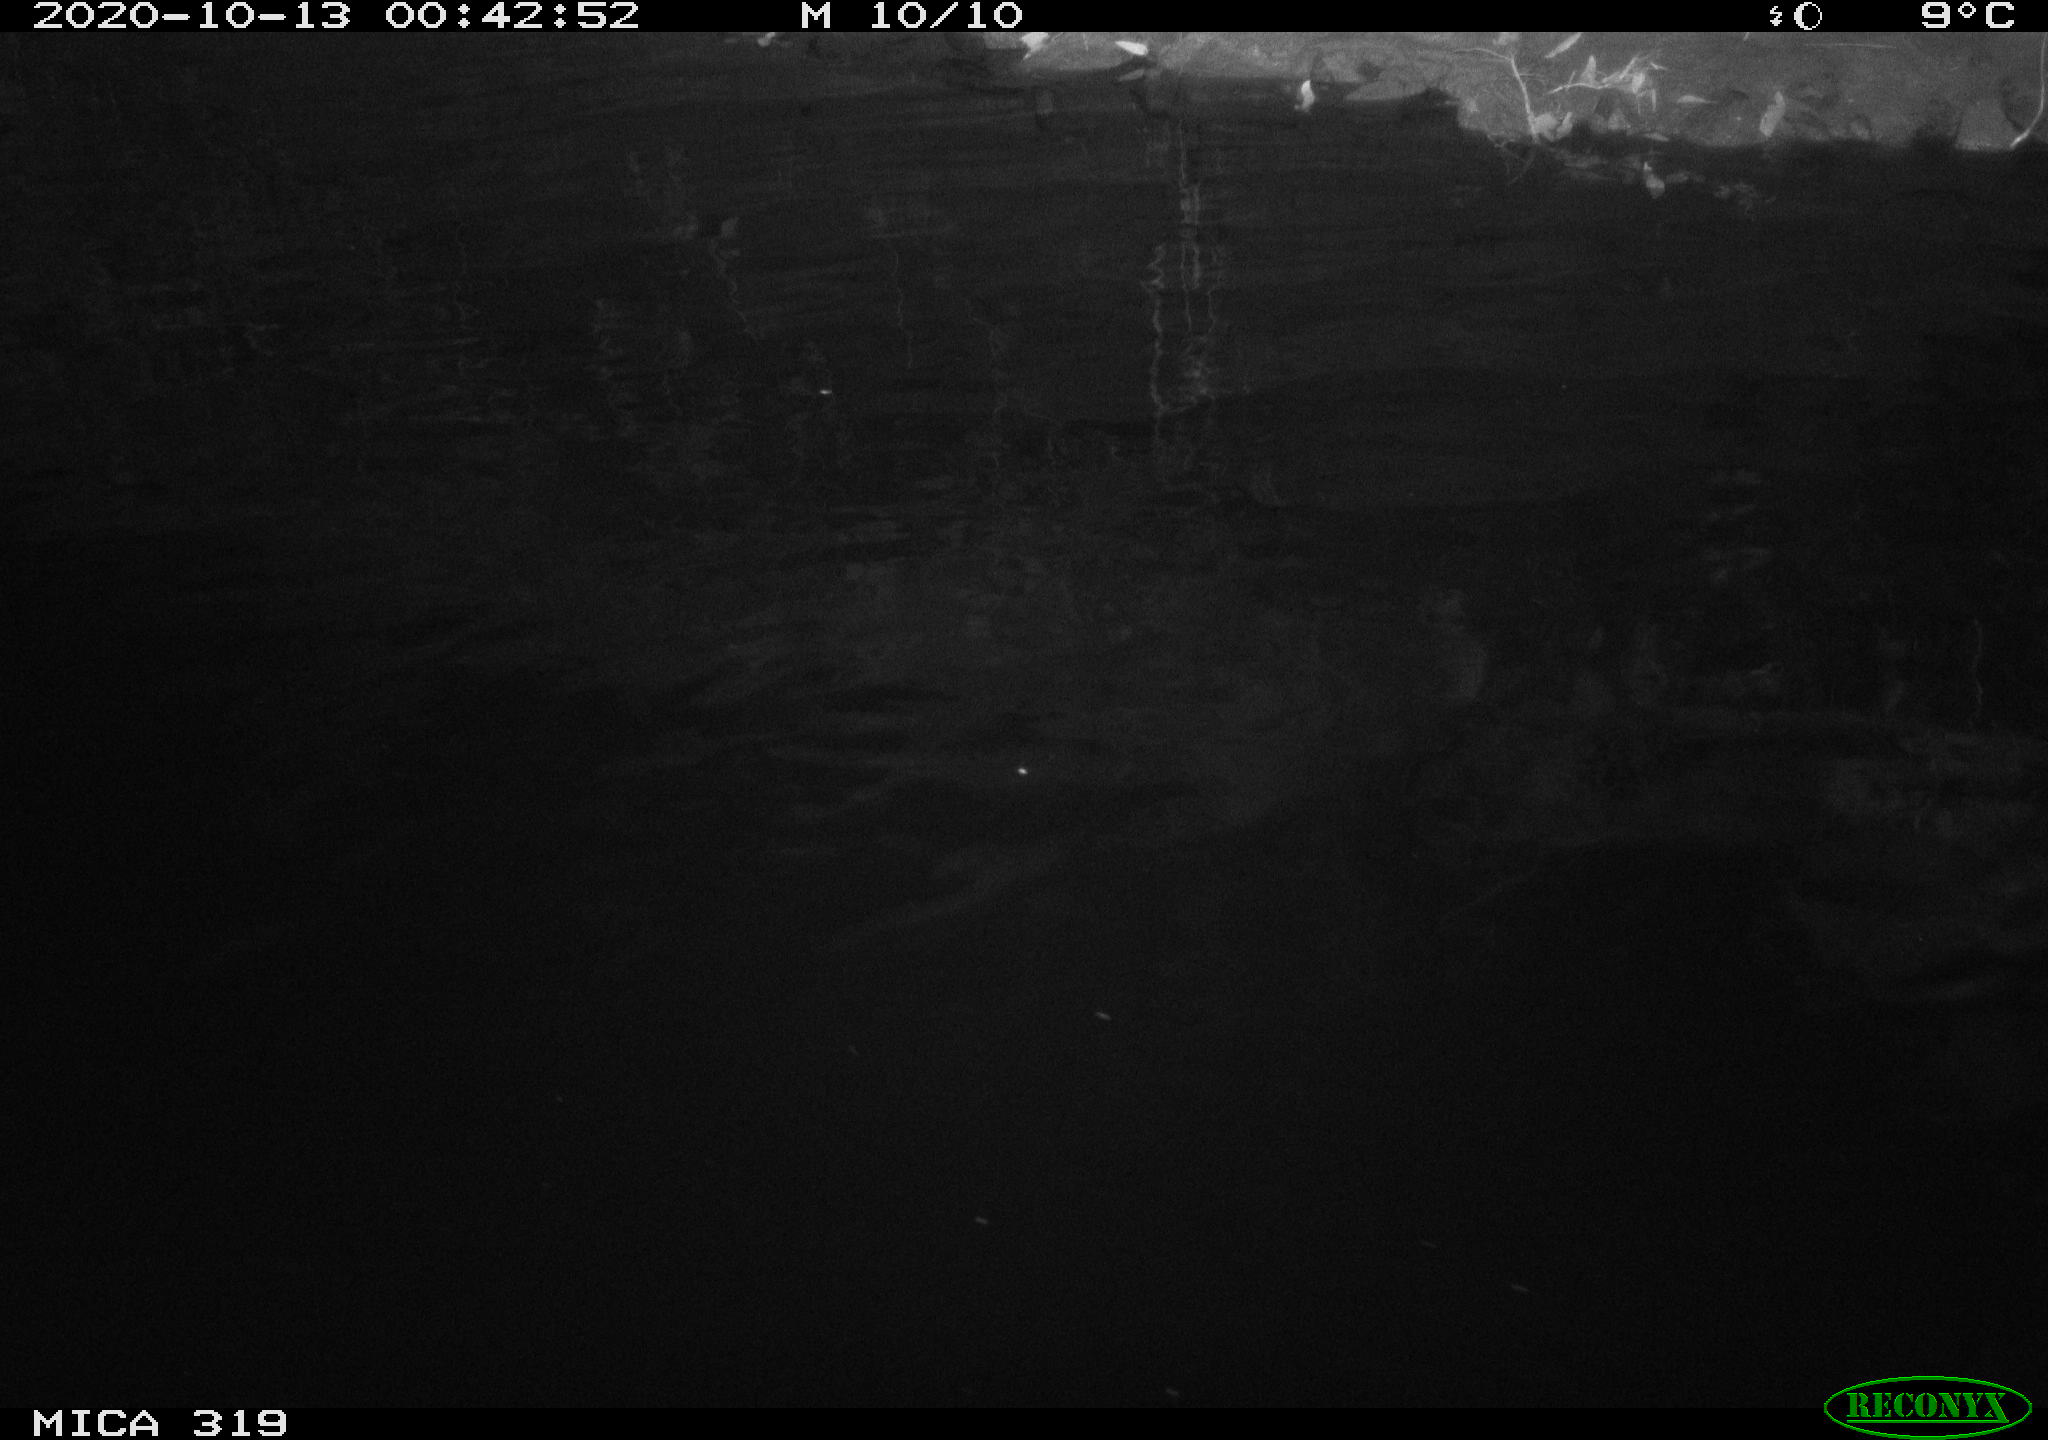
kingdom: Animalia
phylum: Chordata
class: Aves
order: Anseriformes
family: Anatidae
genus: Anas
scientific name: Anas platyrhynchos
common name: Mallard
